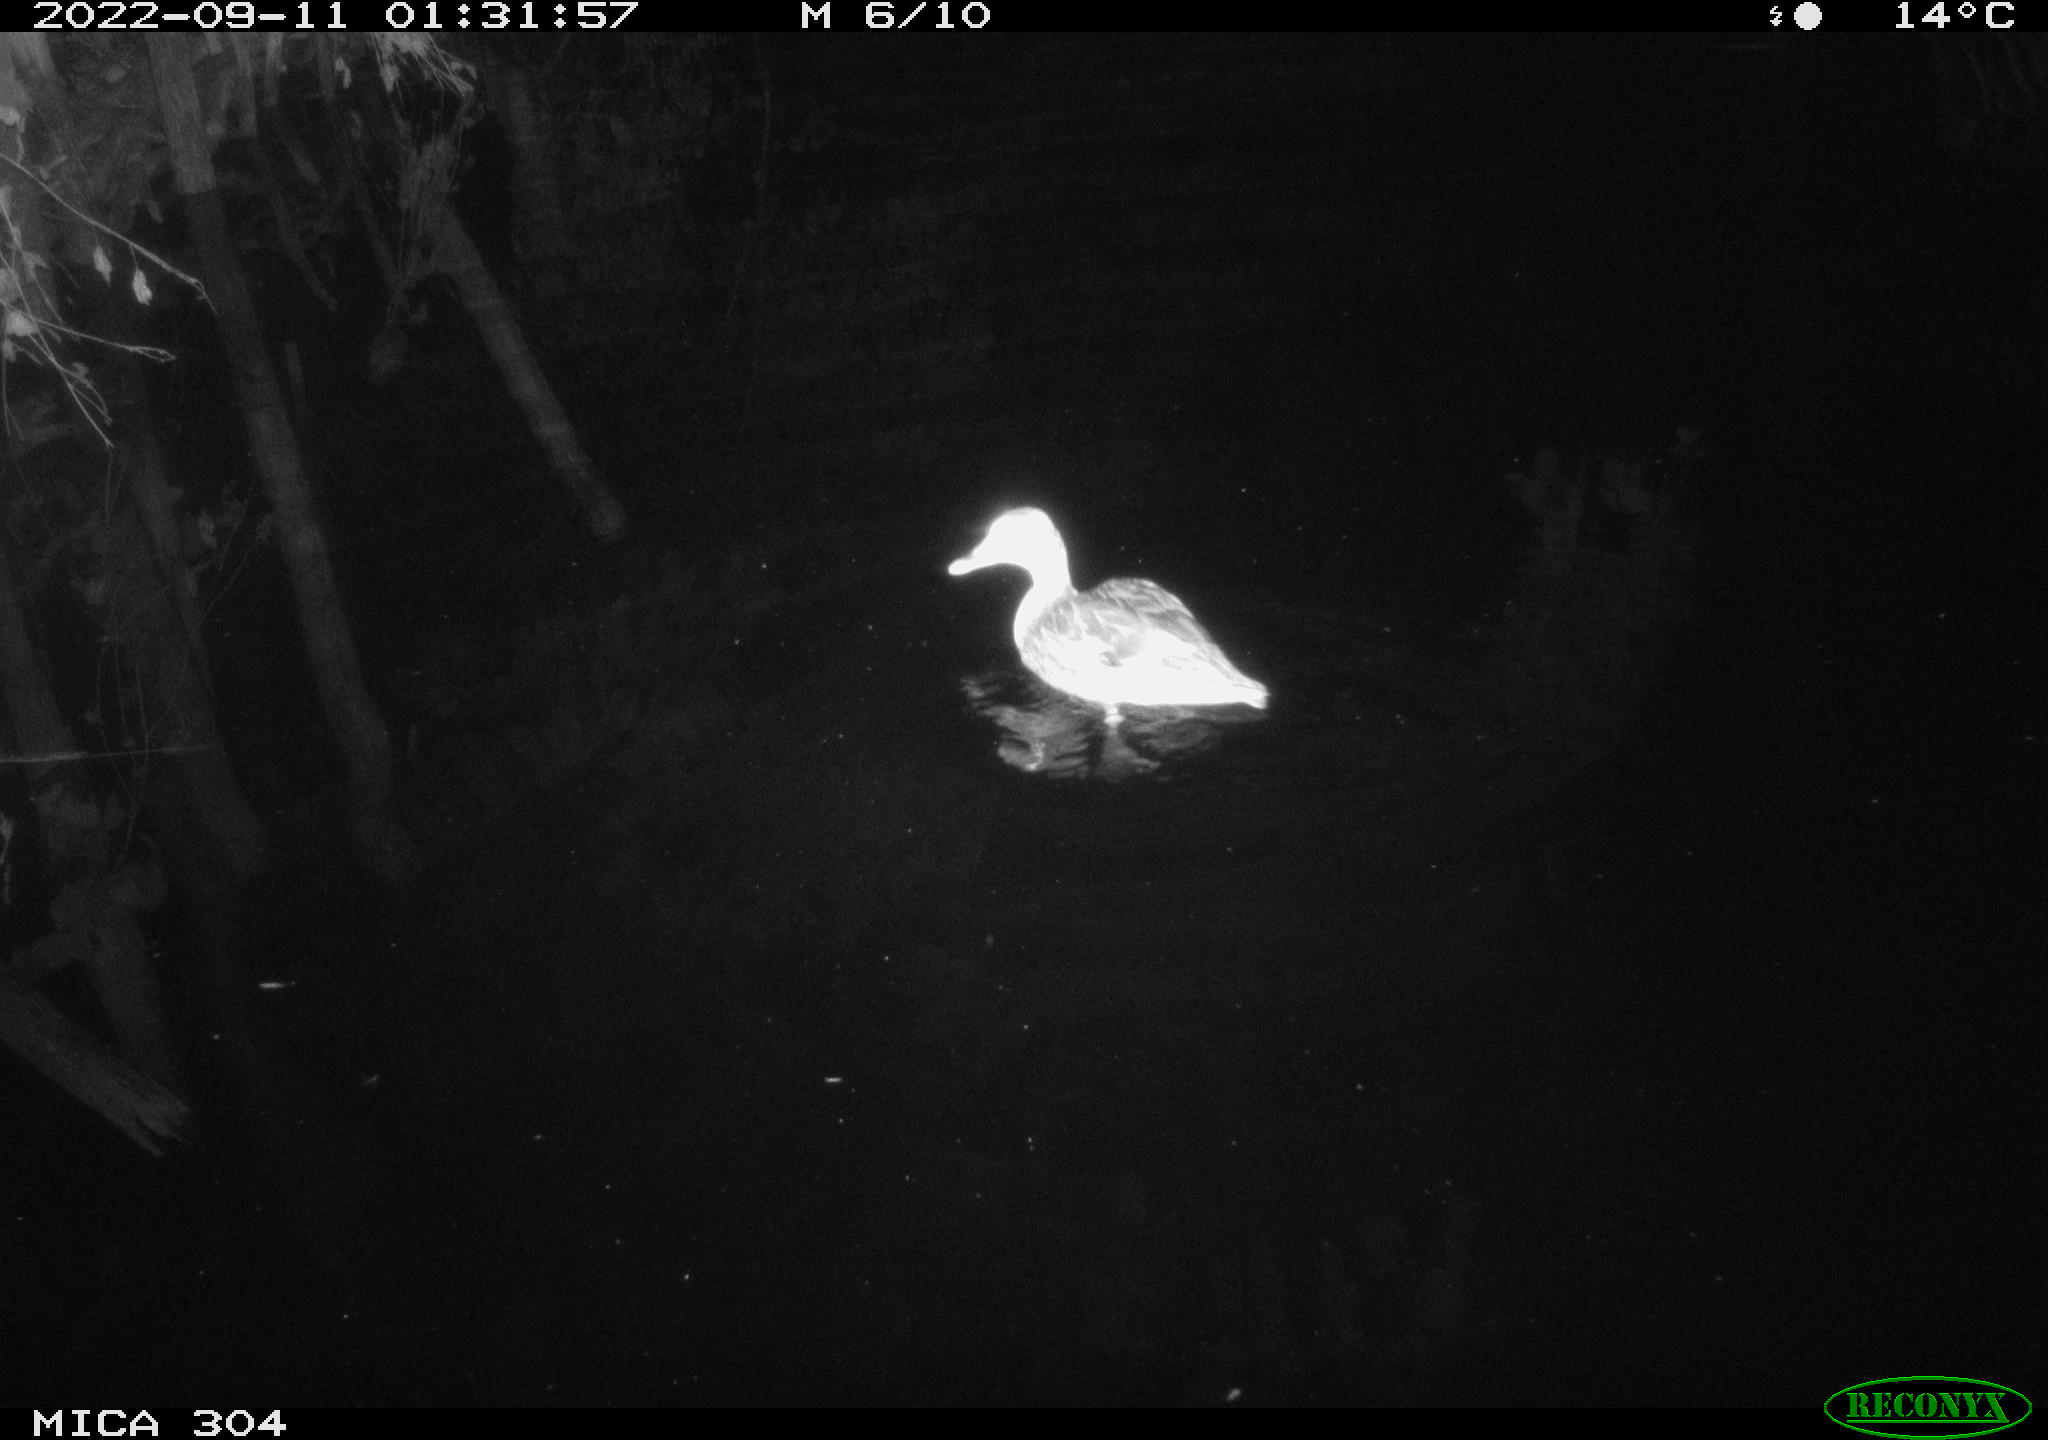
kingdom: Animalia
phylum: Chordata
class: Aves
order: Anseriformes
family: Anatidae
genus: Anas
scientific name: Anas
